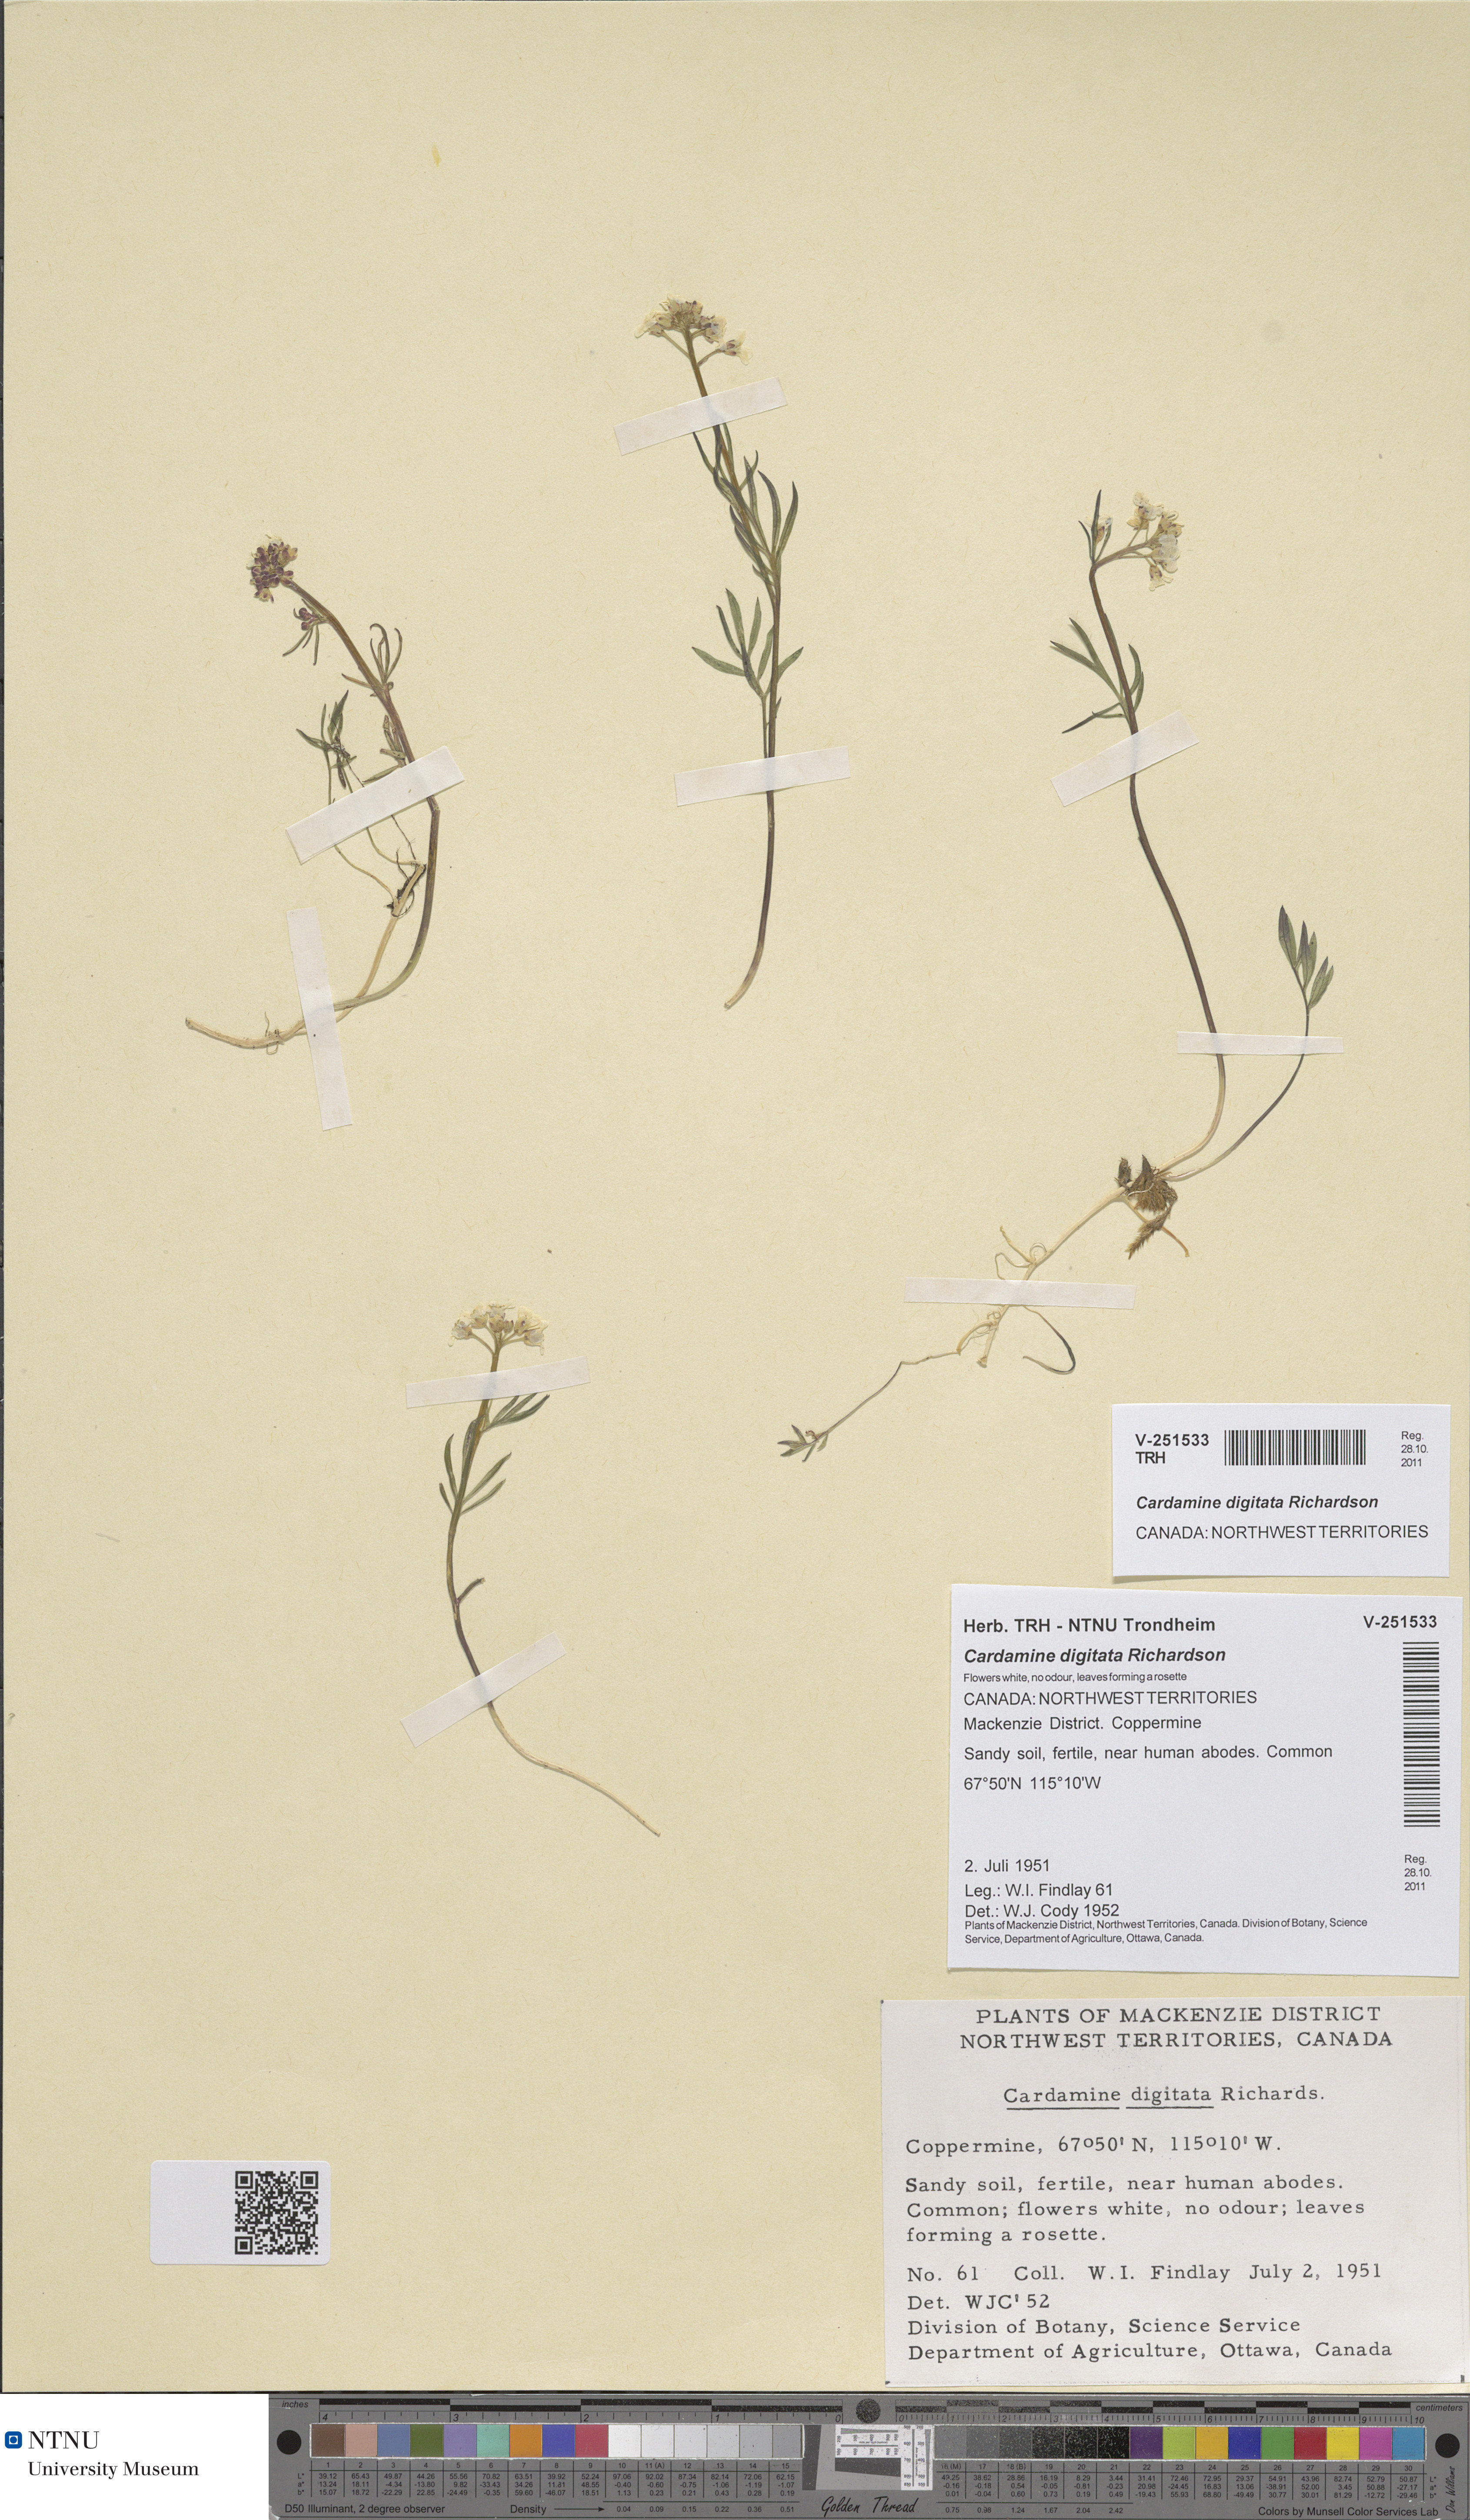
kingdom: Plantae
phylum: Tracheophyta
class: Magnoliopsida
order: Brassicales
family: Brassicaceae
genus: Cardamine
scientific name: Cardamine digitata
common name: Richardson's bittercress
